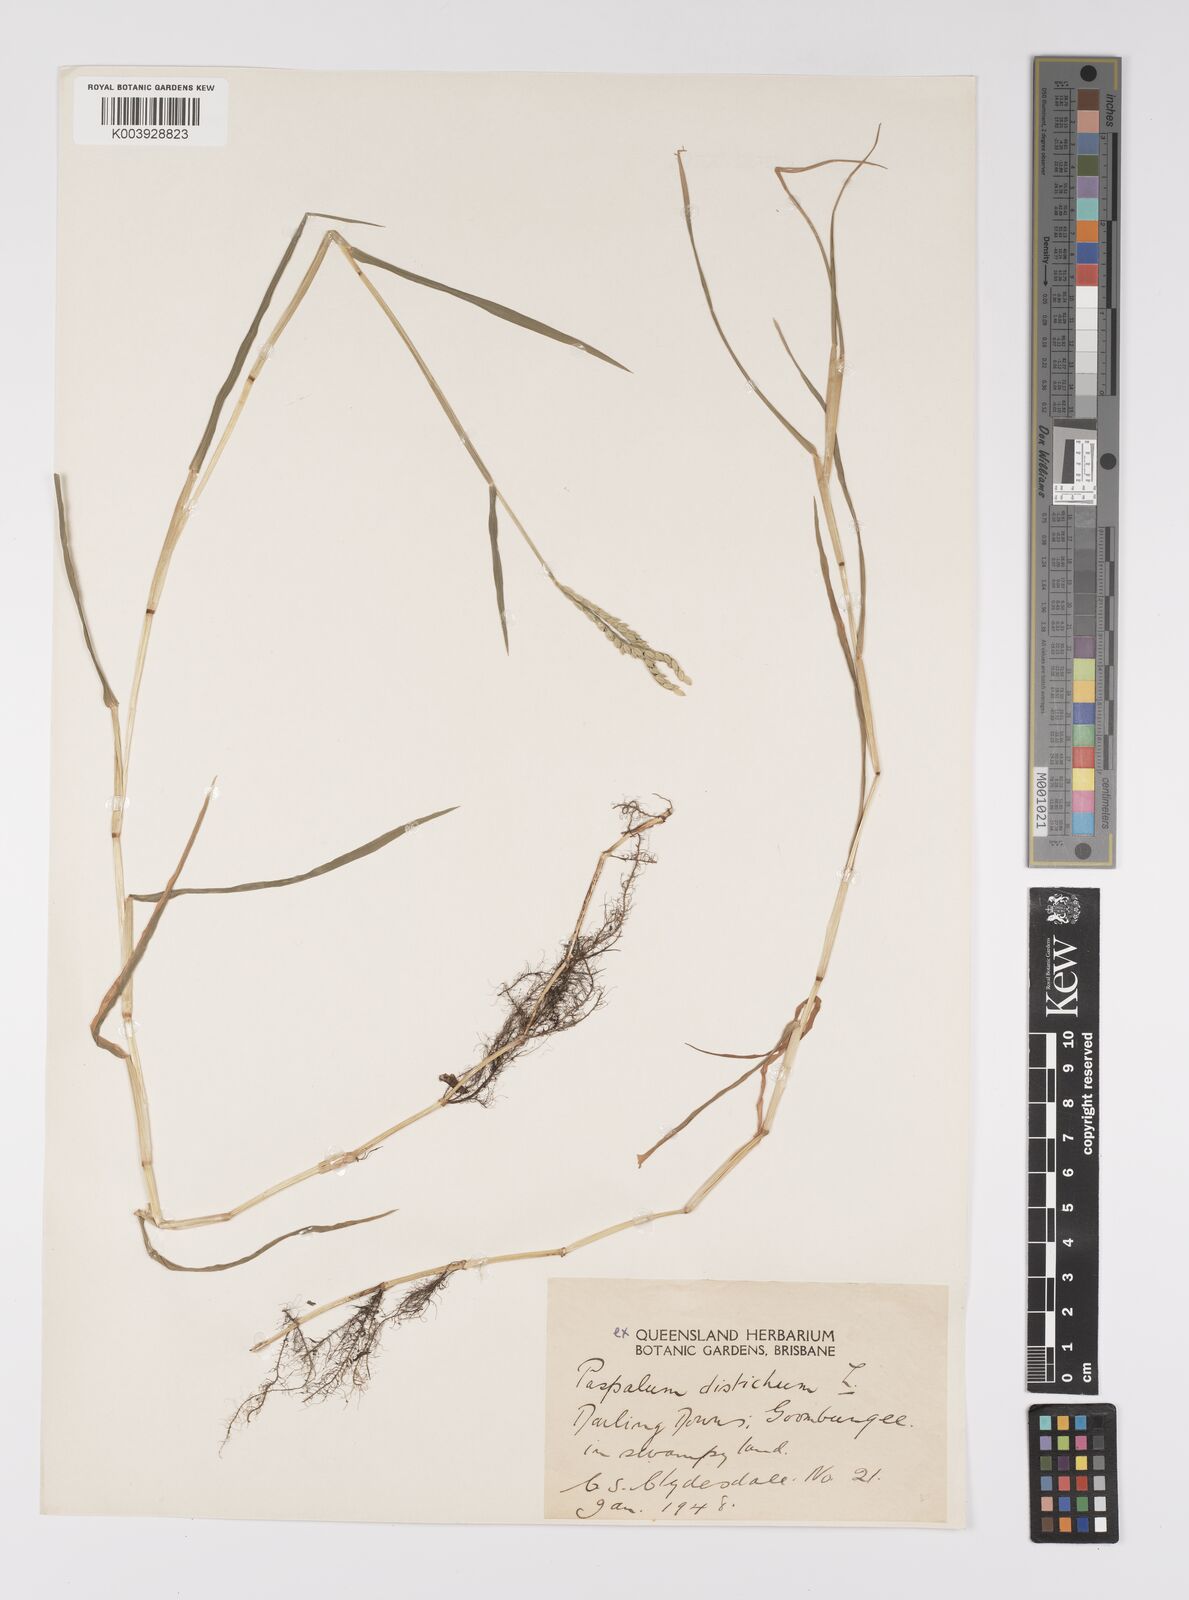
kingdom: Plantae
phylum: Tracheophyta
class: Liliopsida
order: Poales
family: Poaceae
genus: Paspalum
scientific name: Paspalum distichum
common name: Knotgrass
